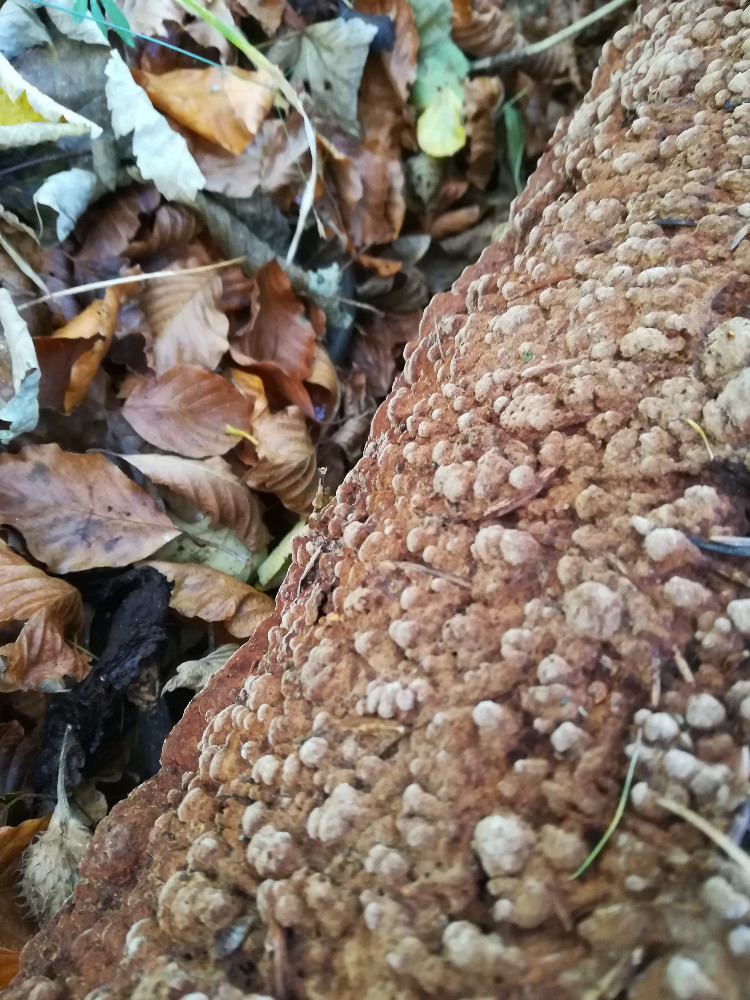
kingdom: Fungi
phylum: Basidiomycota
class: Agaricomycetes
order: Hymenochaetales
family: Hymenochaetaceae
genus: Xanthoporia
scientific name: Xanthoporia radiata
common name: elle-spejlporesvamp
